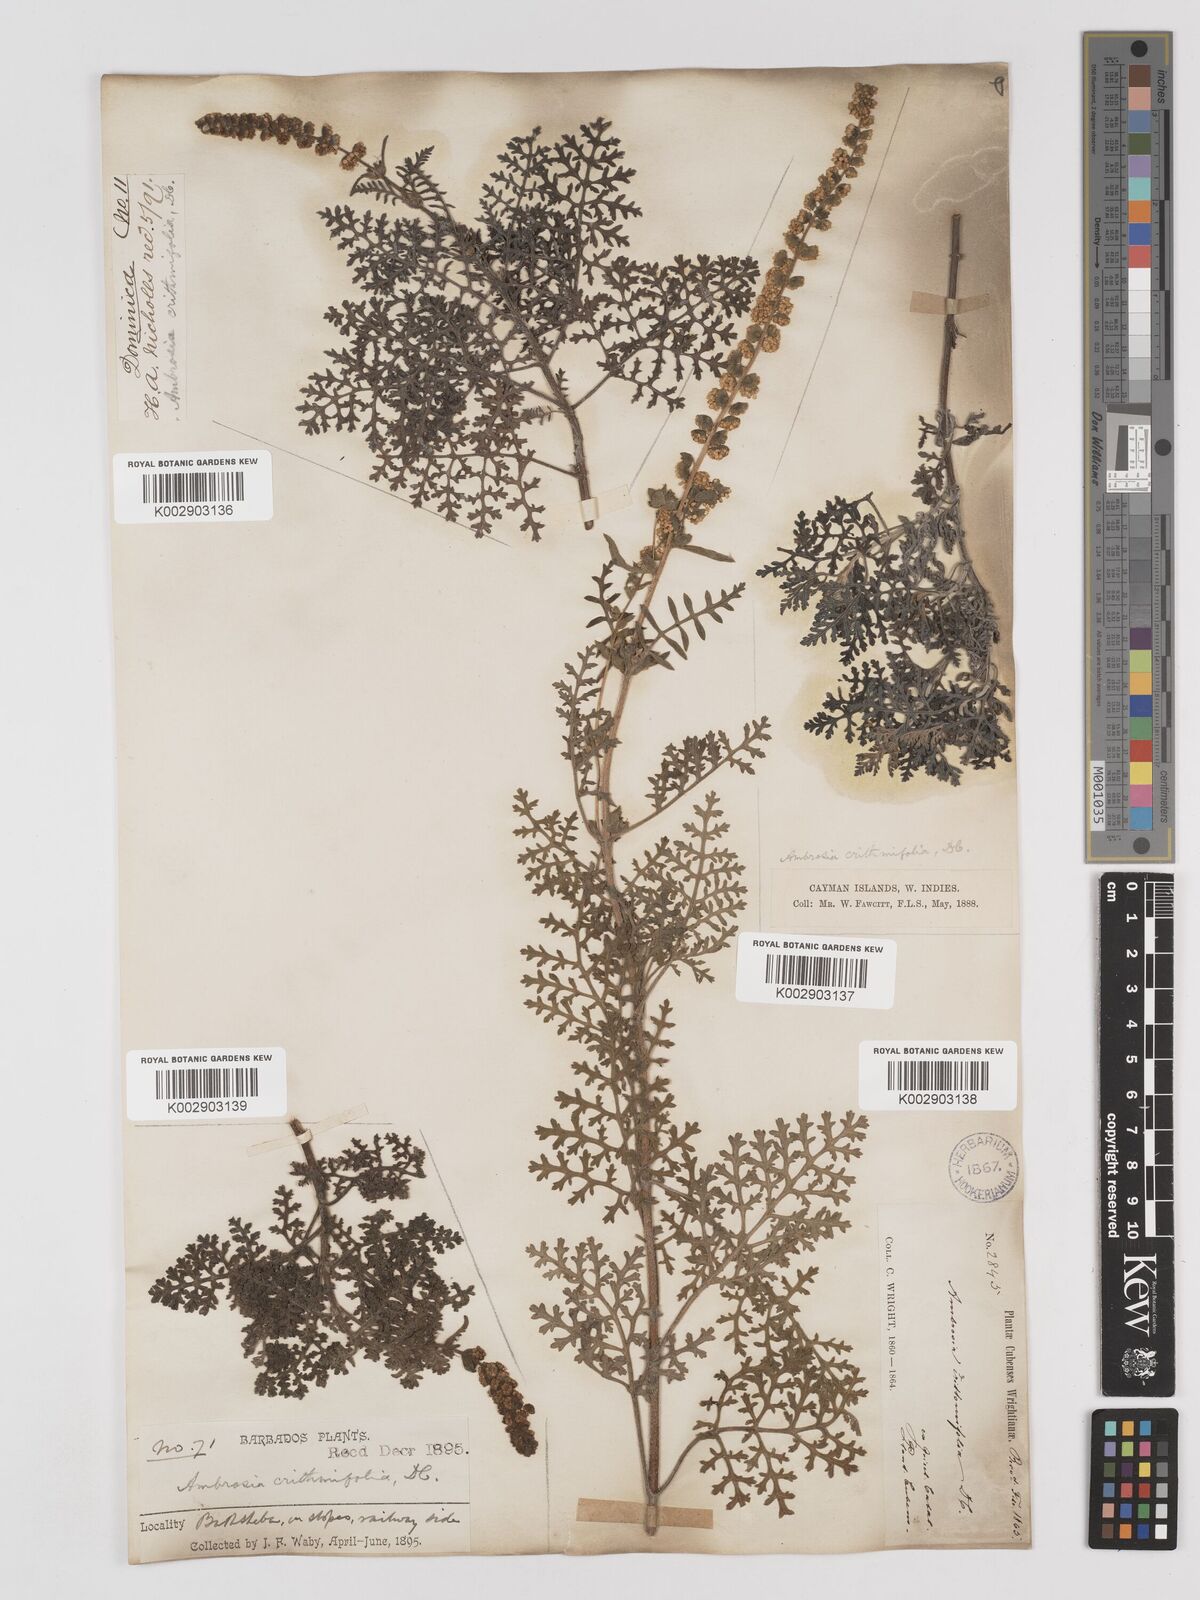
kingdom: Plantae
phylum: Tracheophyta
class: Magnoliopsida
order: Asterales
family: Asteraceae
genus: Ambrosia
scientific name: Ambrosia hispida
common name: Coastal ragweed
